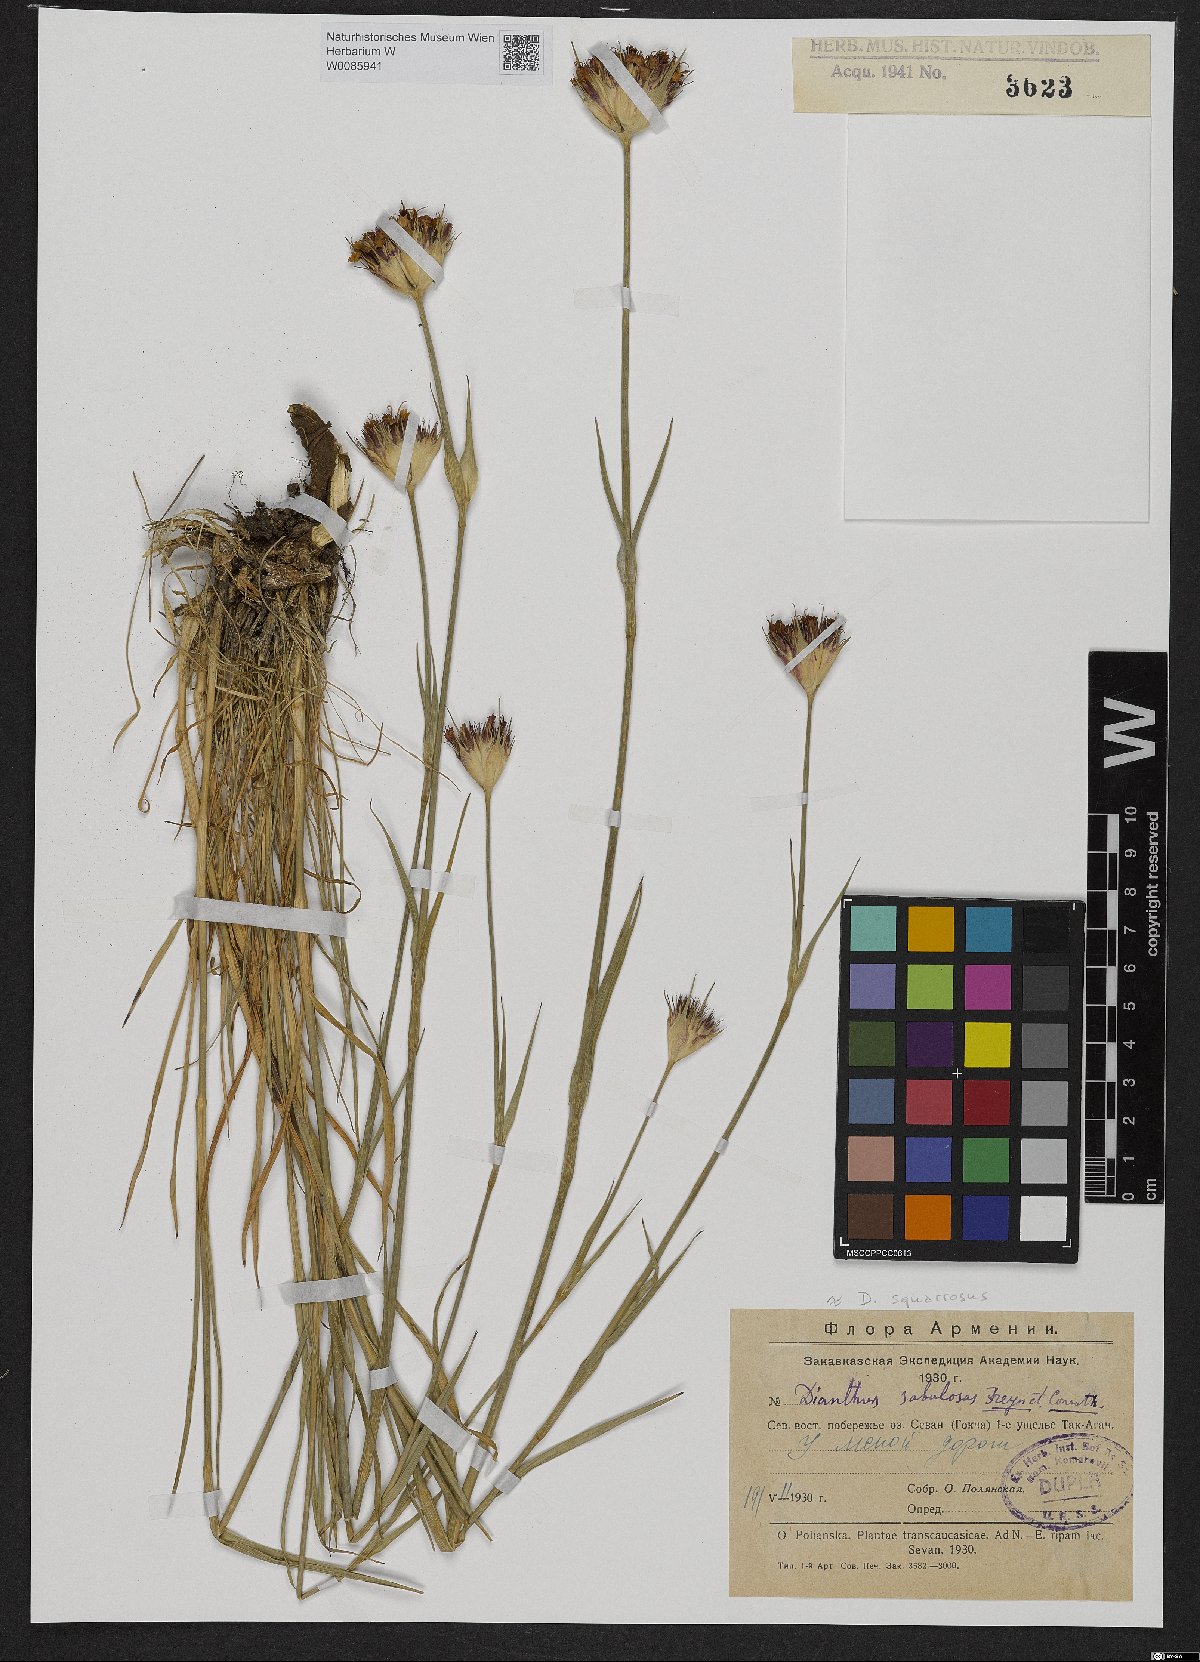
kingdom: Plantae
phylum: Tracheophyta
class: Magnoliopsida
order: Caryophyllales
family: Caryophyllaceae
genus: Dianthus
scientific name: Dianthus squarrosus
